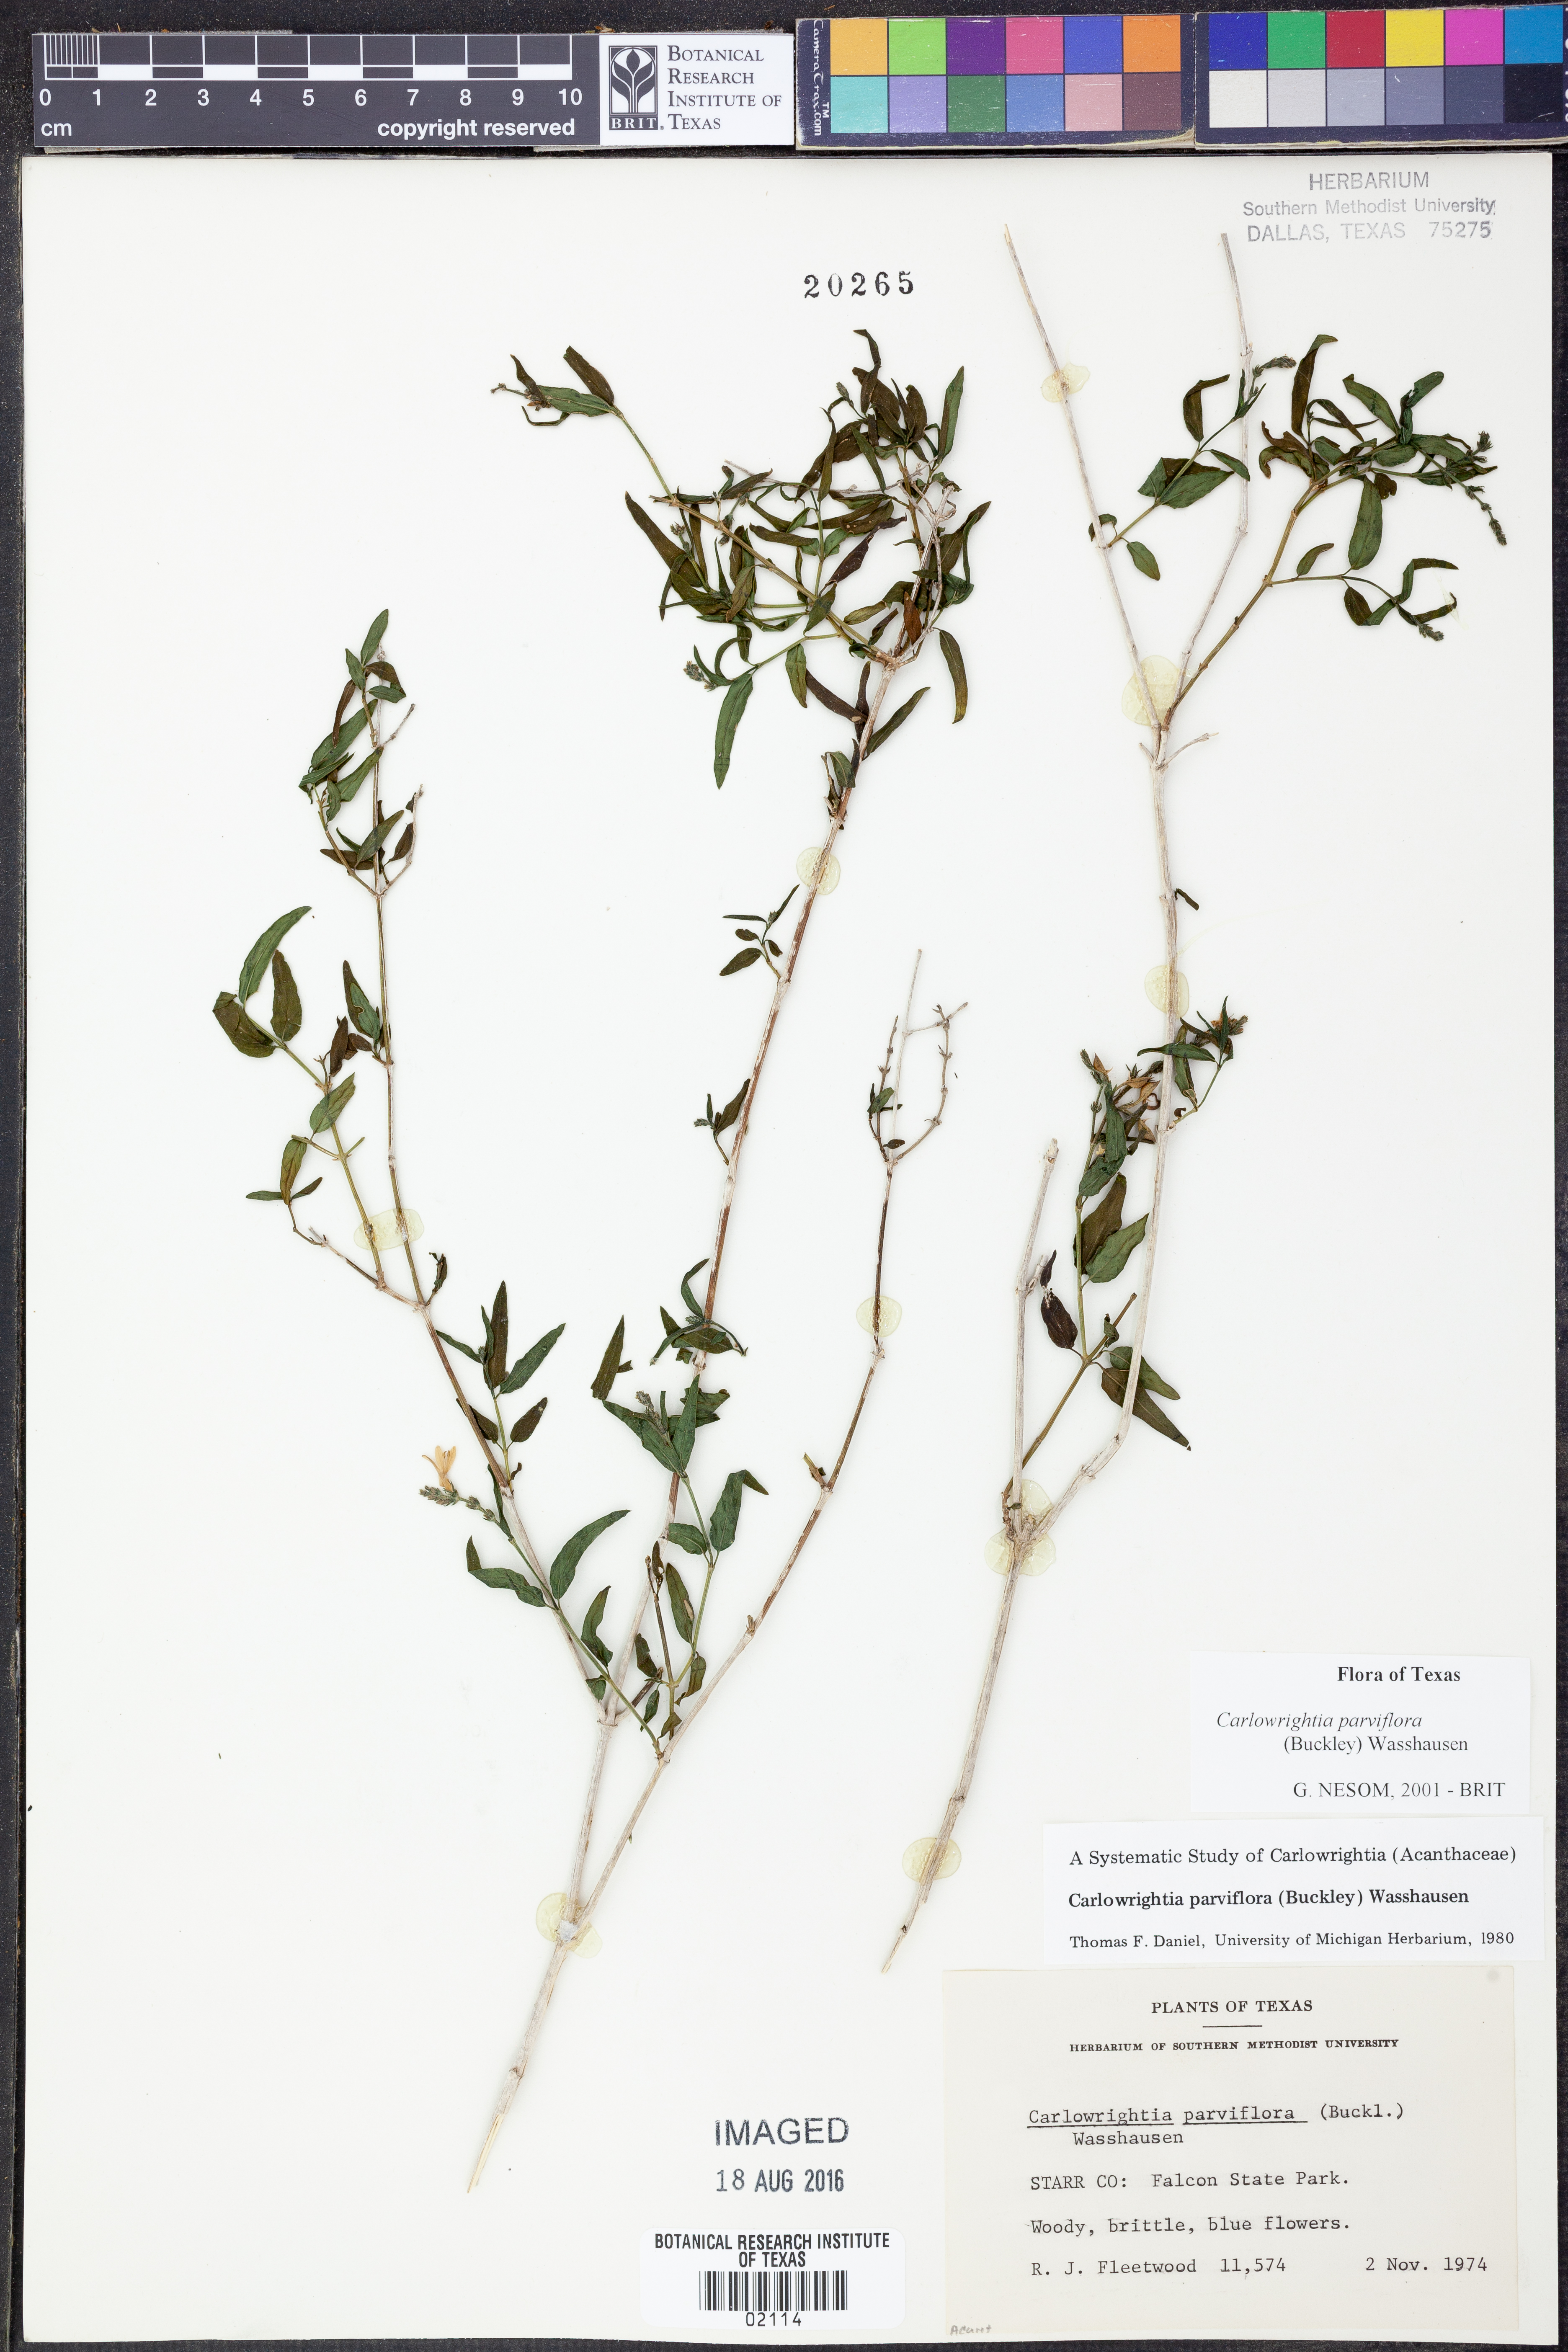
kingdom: Plantae
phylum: Tracheophyta
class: Magnoliopsida
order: Lamiales
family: Acanthaceae
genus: Carlowrightia
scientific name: Carlowrightia parviflora
